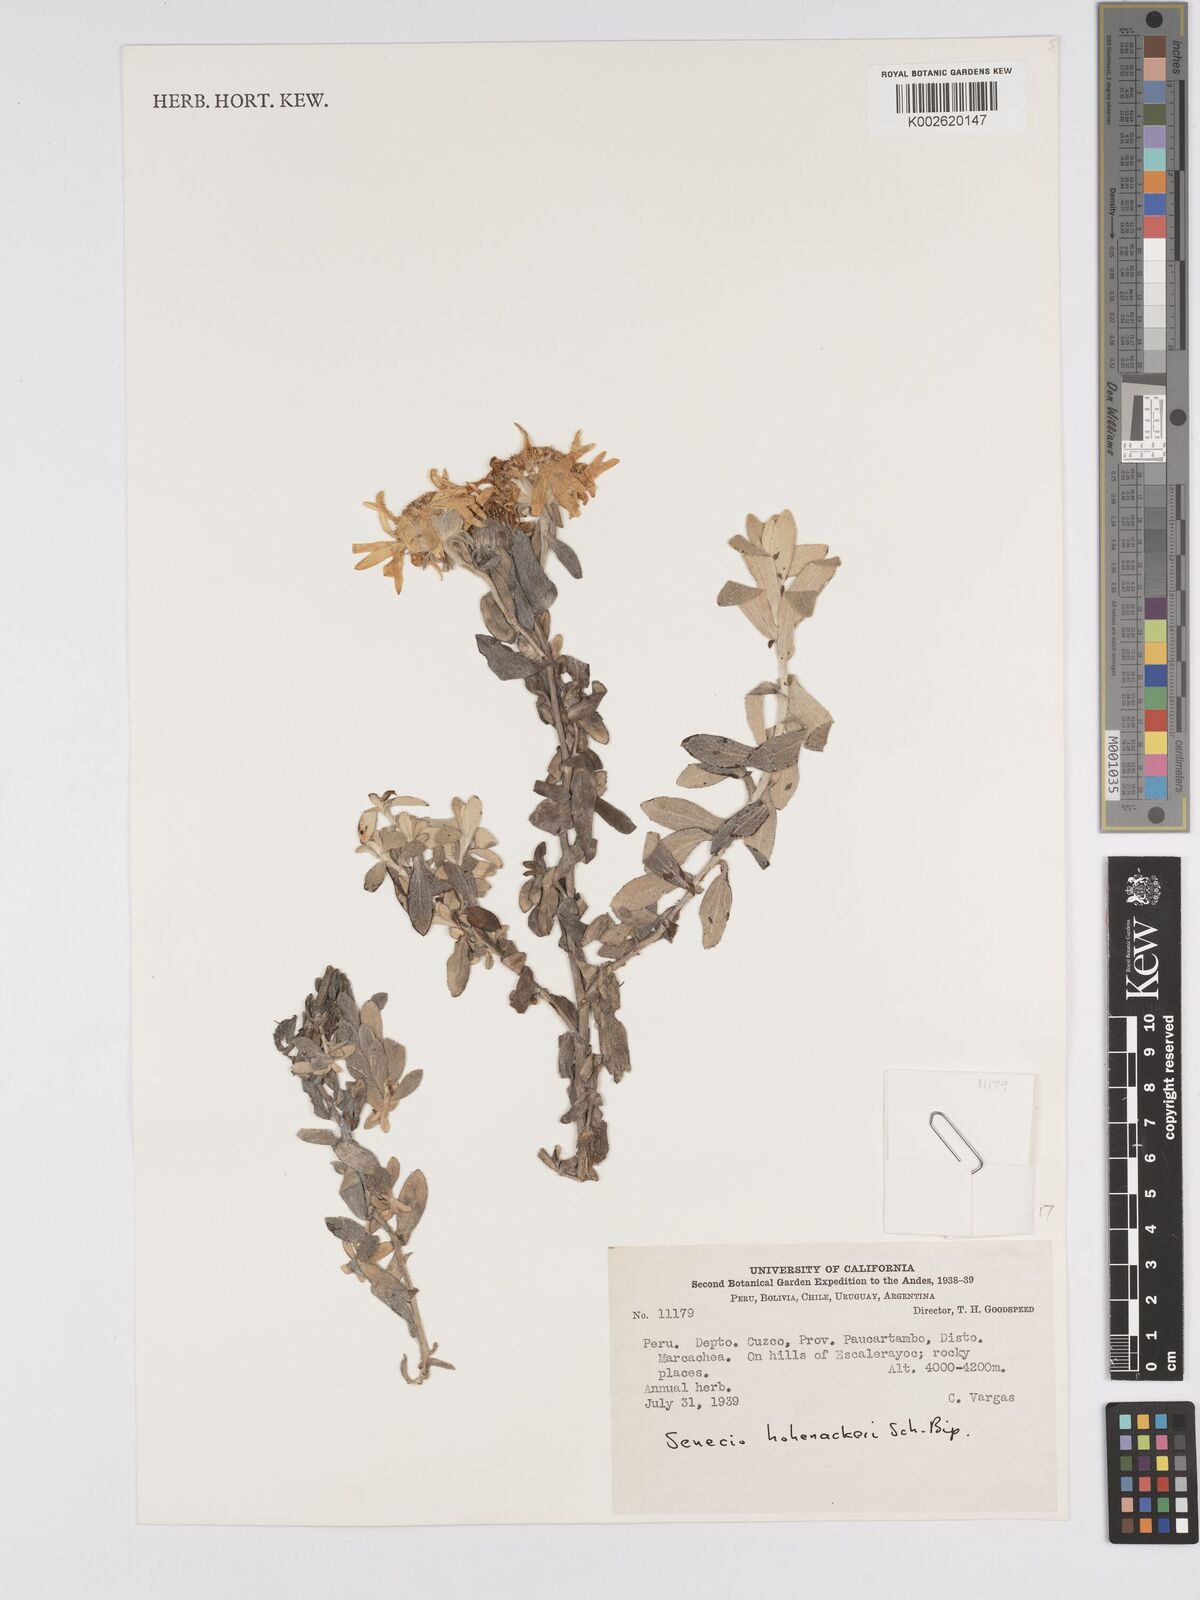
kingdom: Plantae
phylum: Tracheophyta
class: Magnoliopsida
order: Asterales
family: Asteraceae
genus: Senecio
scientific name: Senecio hohenackeri
